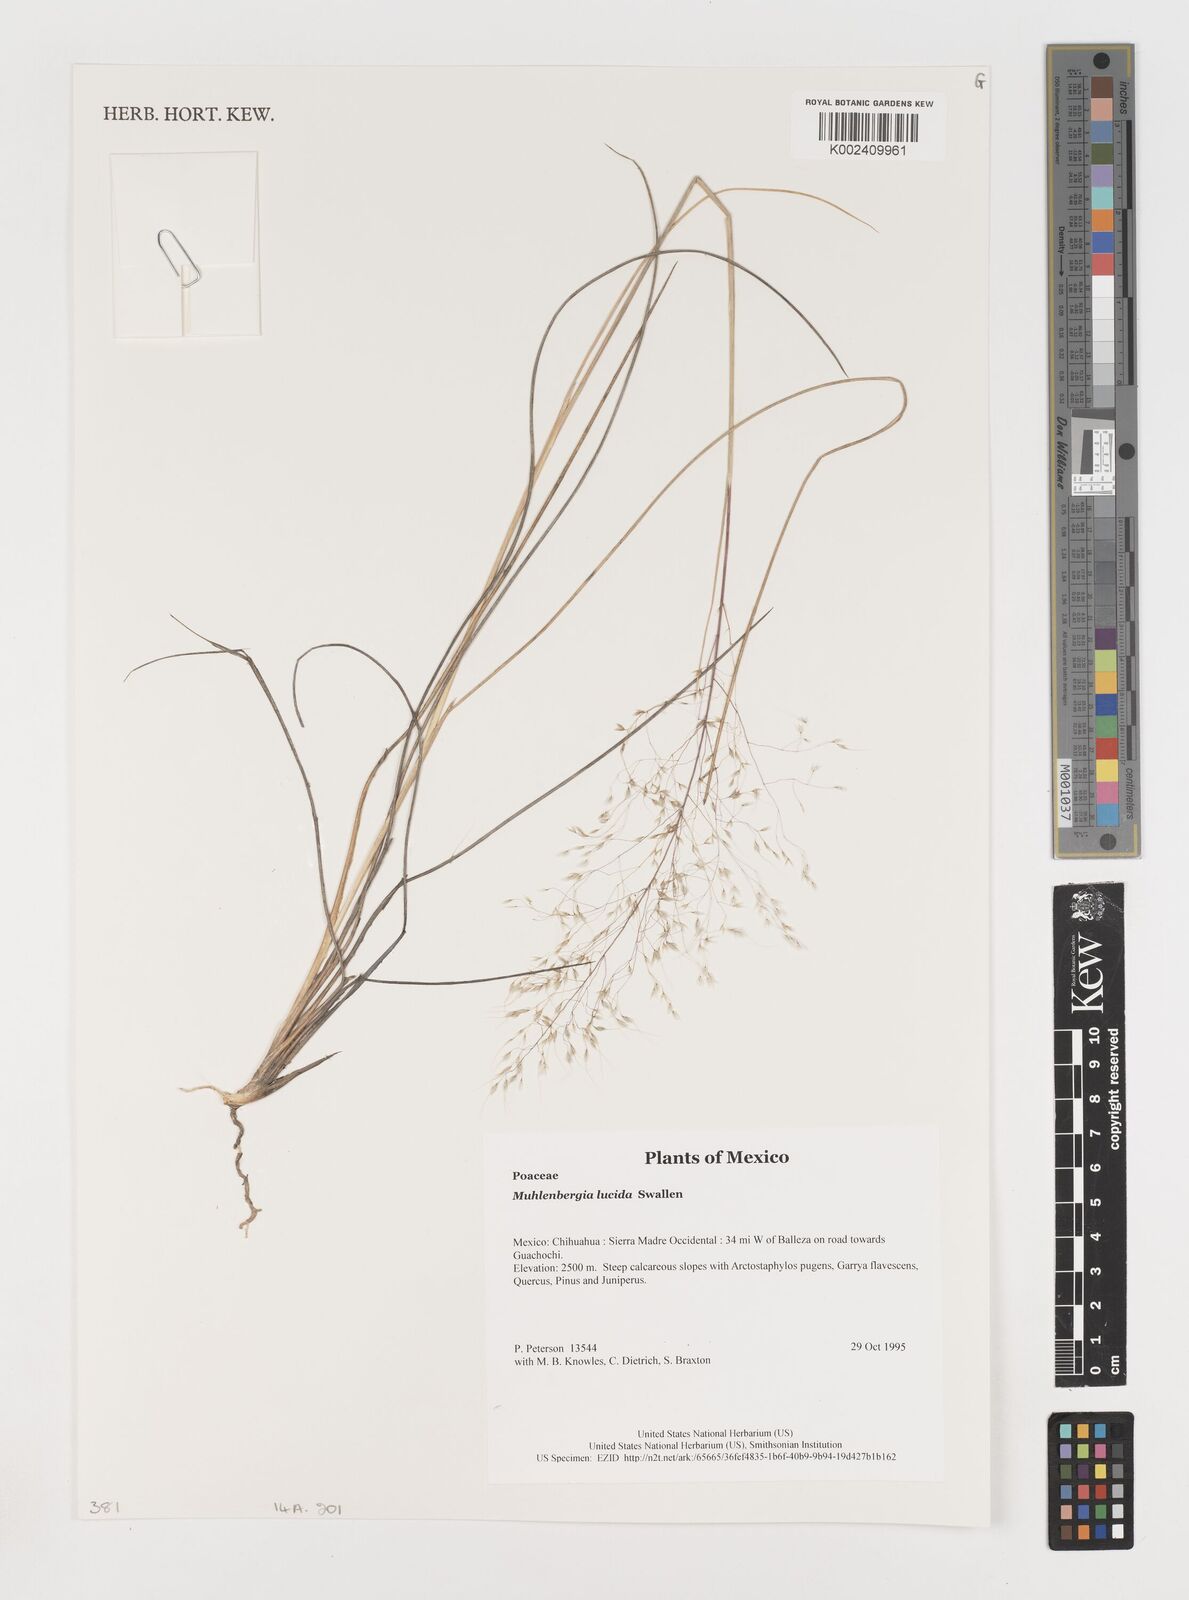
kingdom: Plantae
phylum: Tracheophyta
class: Liliopsida
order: Poales
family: Poaceae
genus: Muhlenbergia
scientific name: Muhlenbergia lucida
